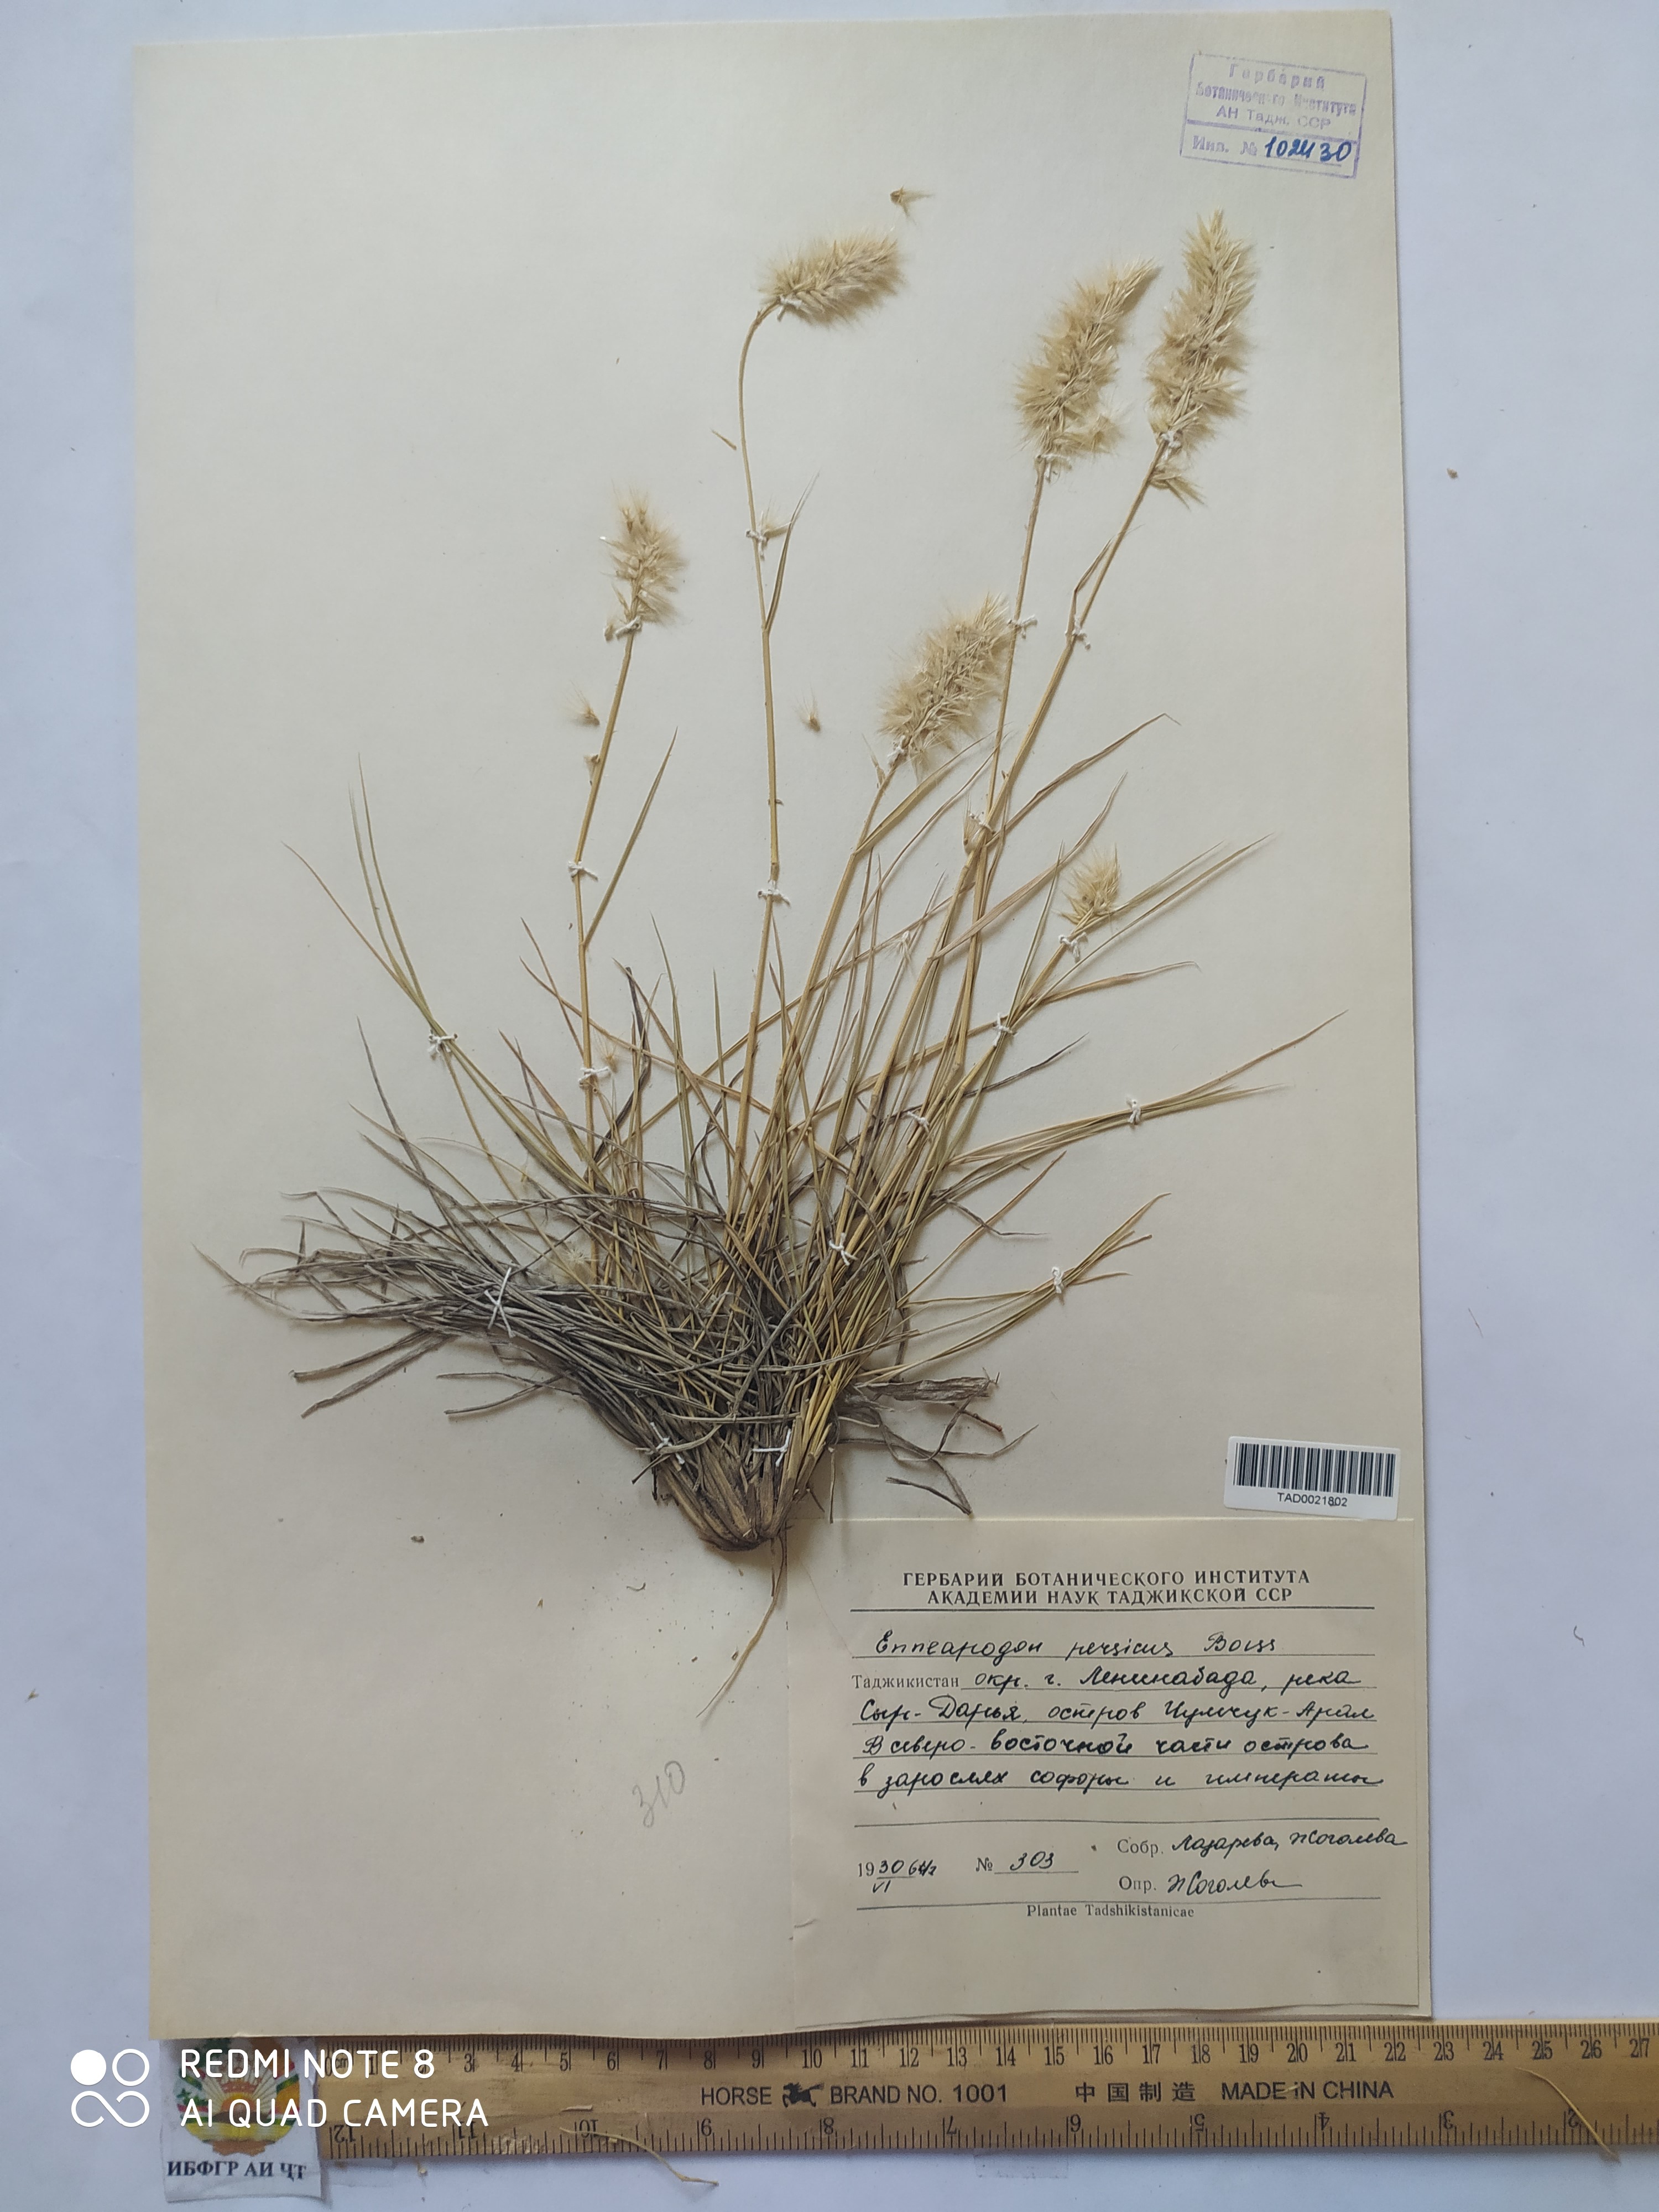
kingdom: Plantae
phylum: Tracheophyta
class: Liliopsida
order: Poales
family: Poaceae
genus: Enneapogon
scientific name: Enneapogon persicus
